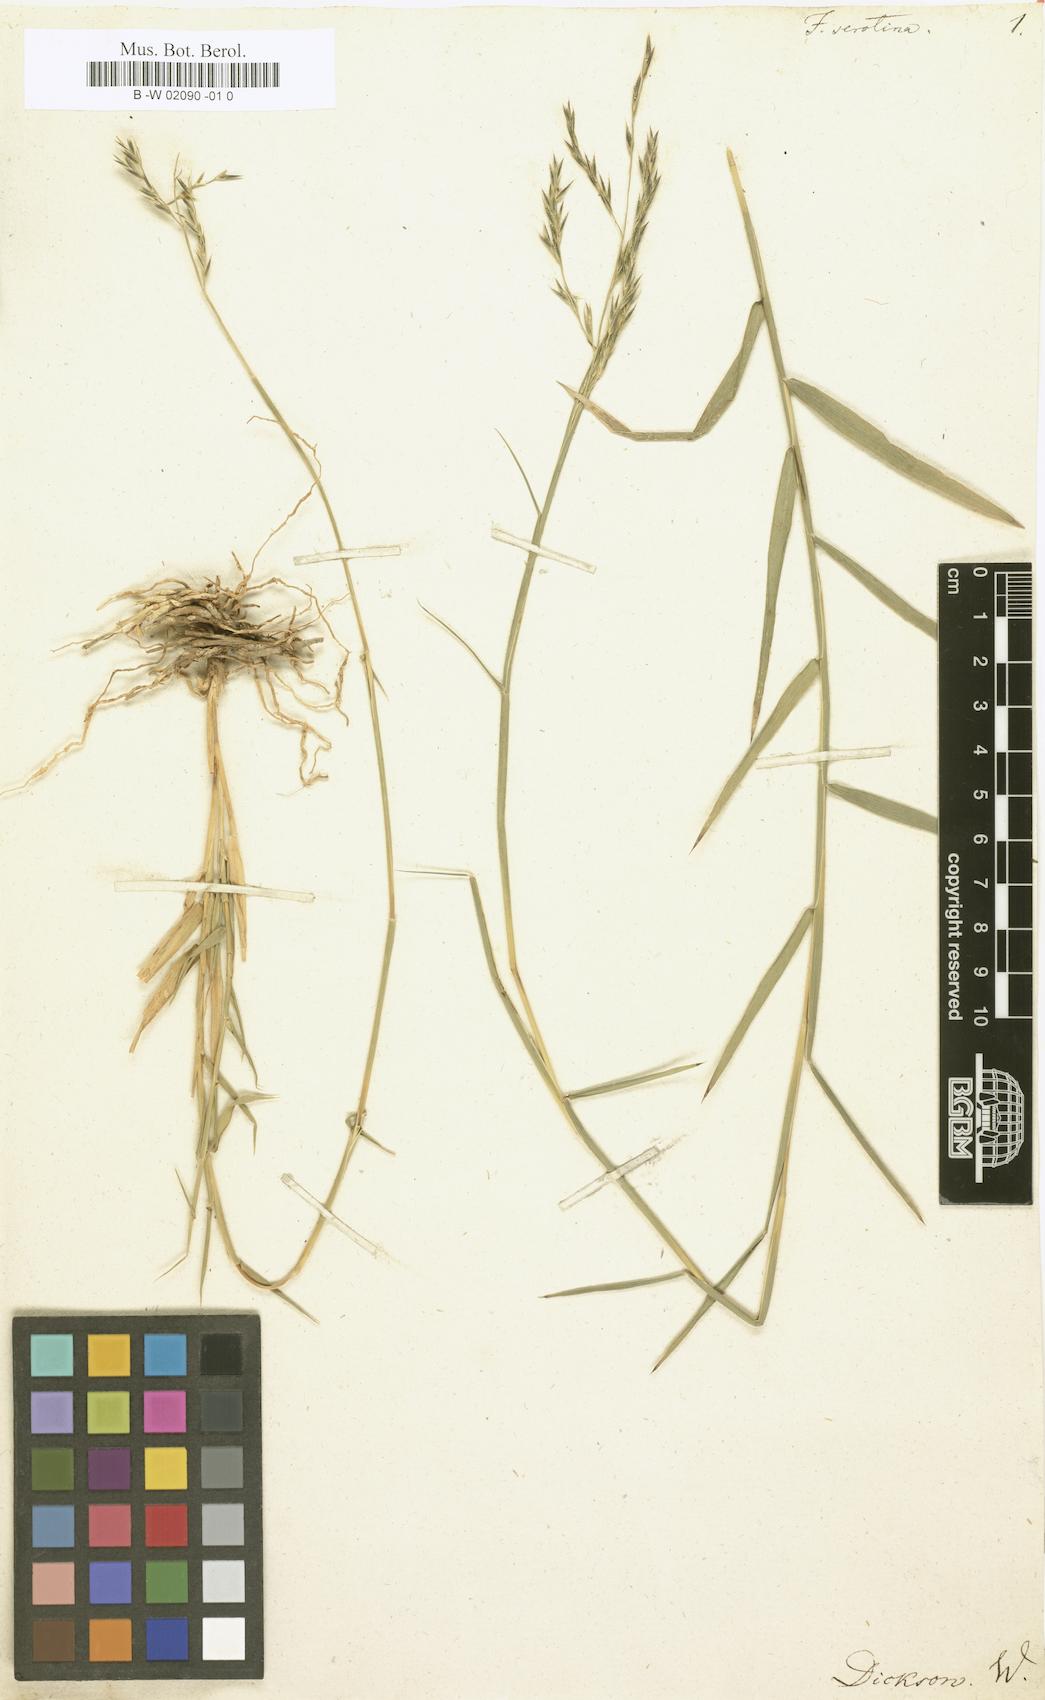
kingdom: Plantae
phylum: Tracheophyta
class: Liliopsida
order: Poales
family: Poaceae
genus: Cleistogenes
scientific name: Cleistogenes serotina
